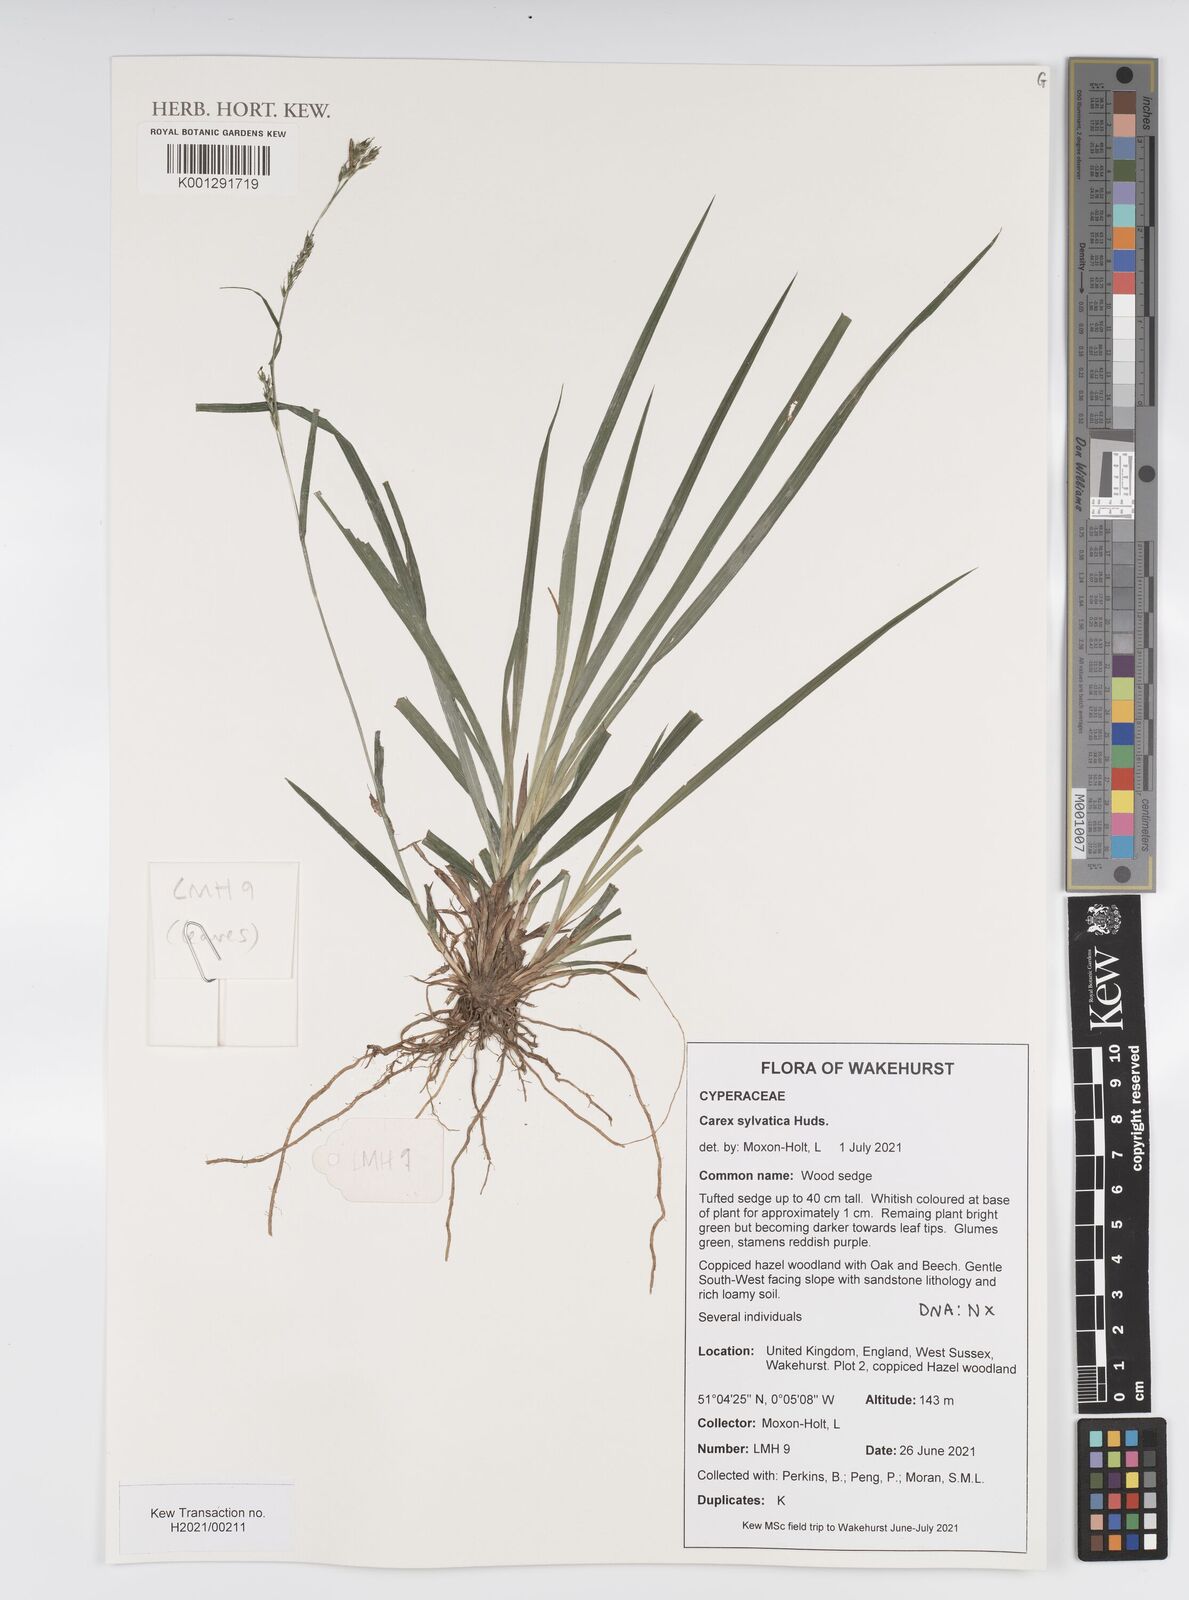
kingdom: Plantae
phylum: Tracheophyta
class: Liliopsida
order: Poales
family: Cyperaceae
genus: Carex
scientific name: Carex sylvatica
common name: Wood-sedge
